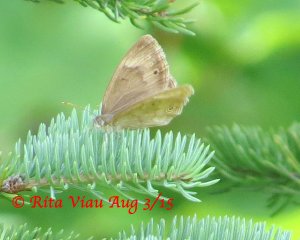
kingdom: Animalia
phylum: Arthropoda
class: Insecta
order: Lepidoptera
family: Nymphalidae
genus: Lethe
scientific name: Lethe eurydice
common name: Eyed Brown
